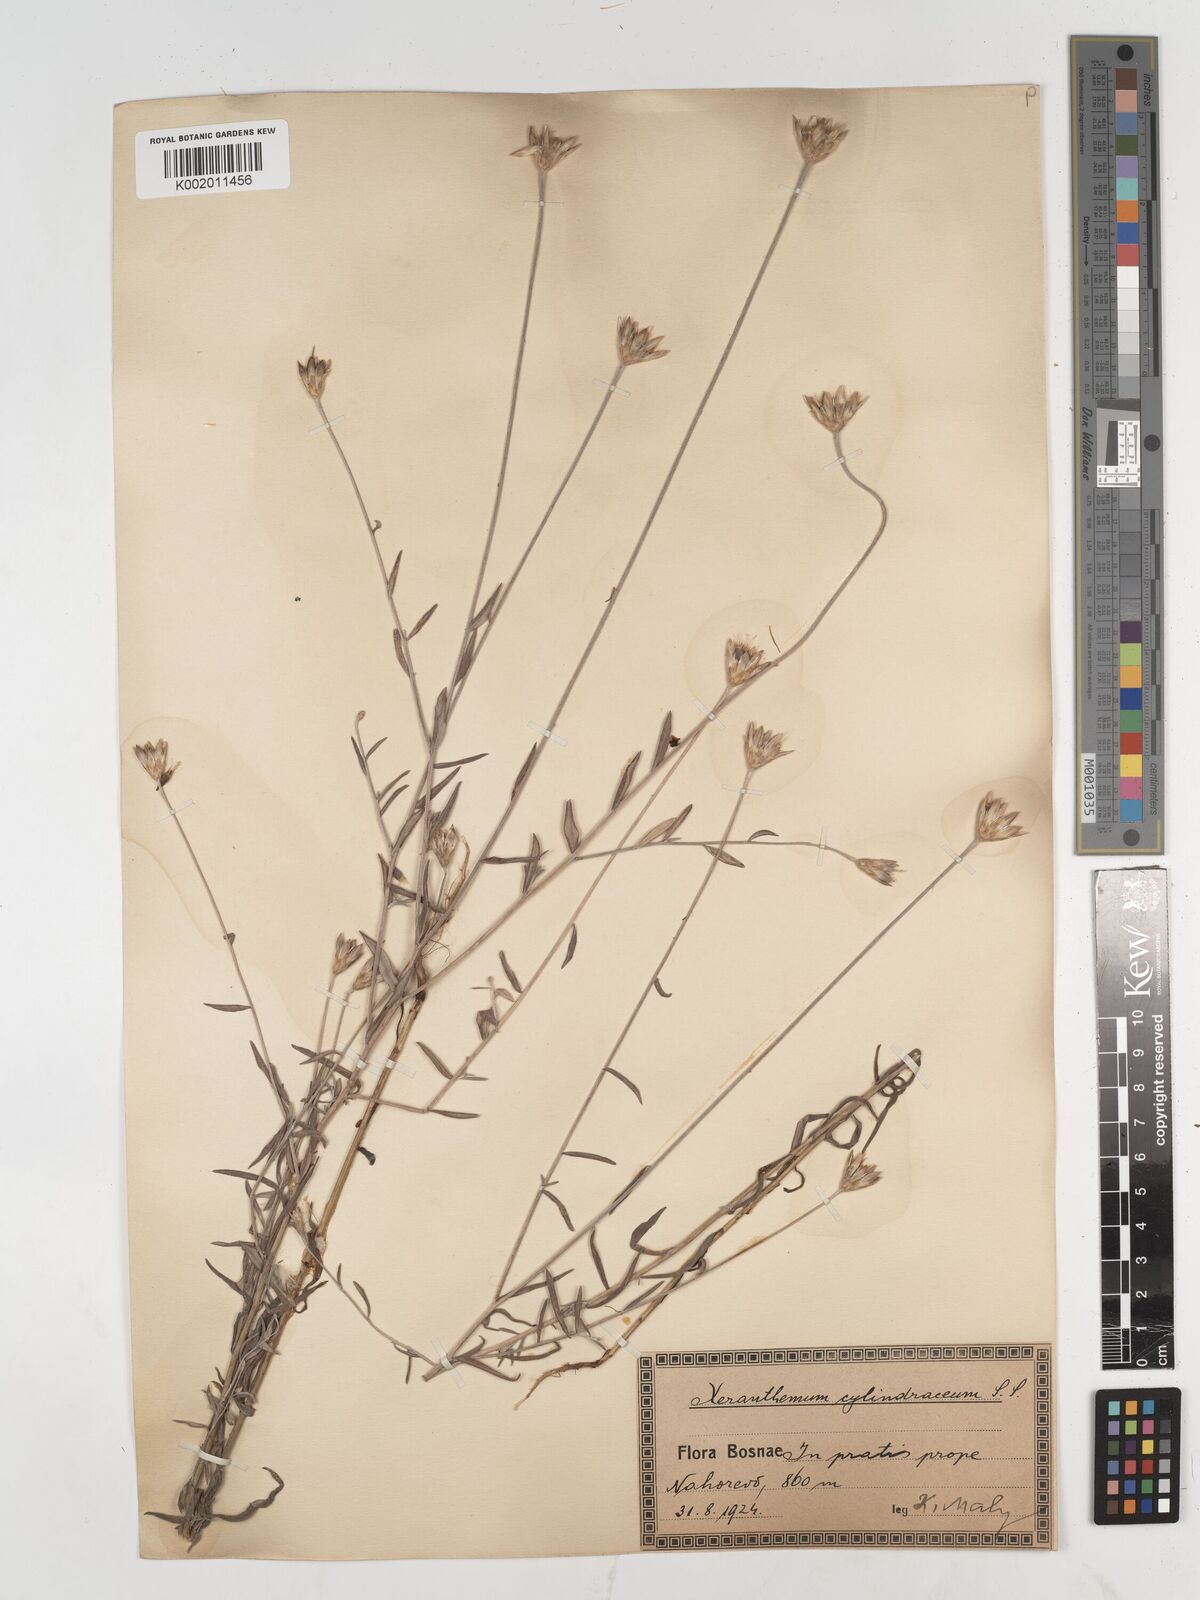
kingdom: Plantae
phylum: Tracheophyta
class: Magnoliopsida
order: Asterales
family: Asteraceae
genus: Xeranthemum
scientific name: Xeranthemum cylindraceum
